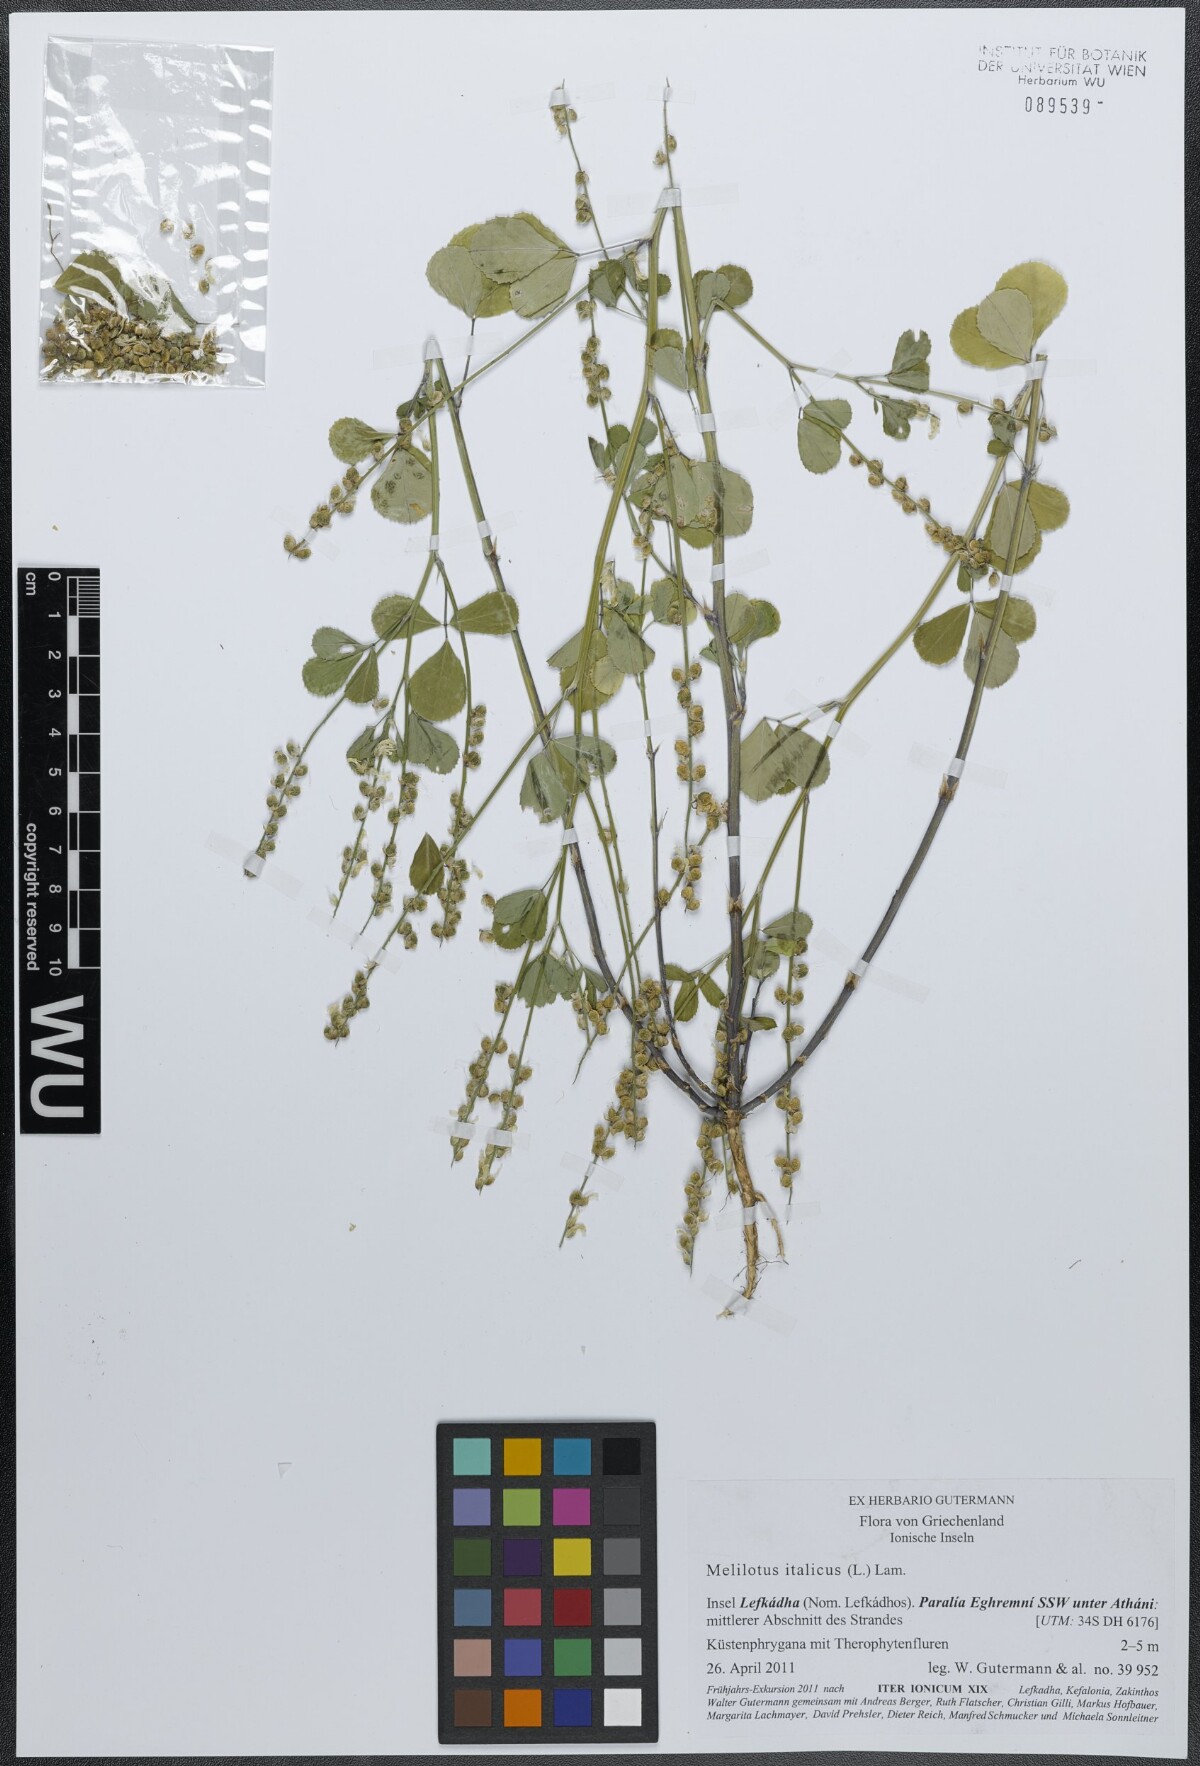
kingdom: Plantae
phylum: Tracheophyta
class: Magnoliopsida
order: Fabales
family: Fabaceae
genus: Melilotus
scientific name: Melilotus italicus
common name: Italian melilot
